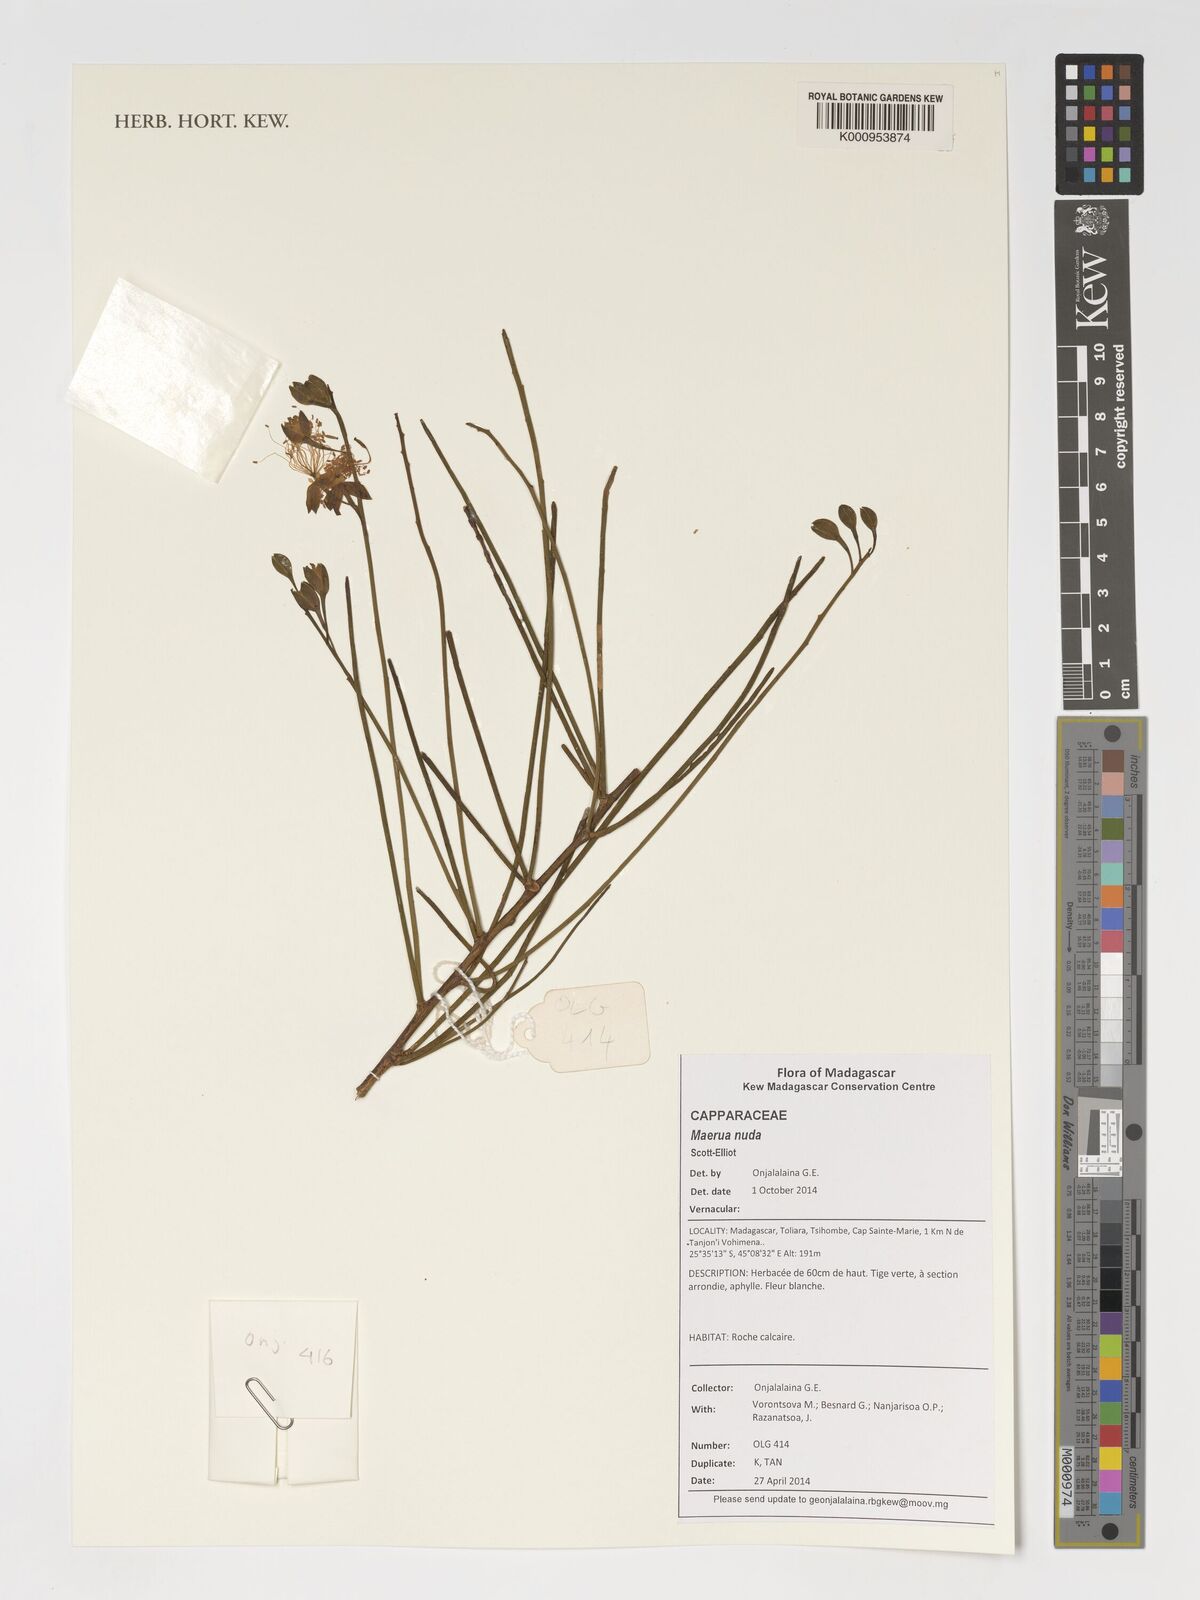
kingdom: Plantae
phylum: Tracheophyta
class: Magnoliopsida
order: Brassicales
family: Capparaceae
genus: Maerua
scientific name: Maerua nuda
